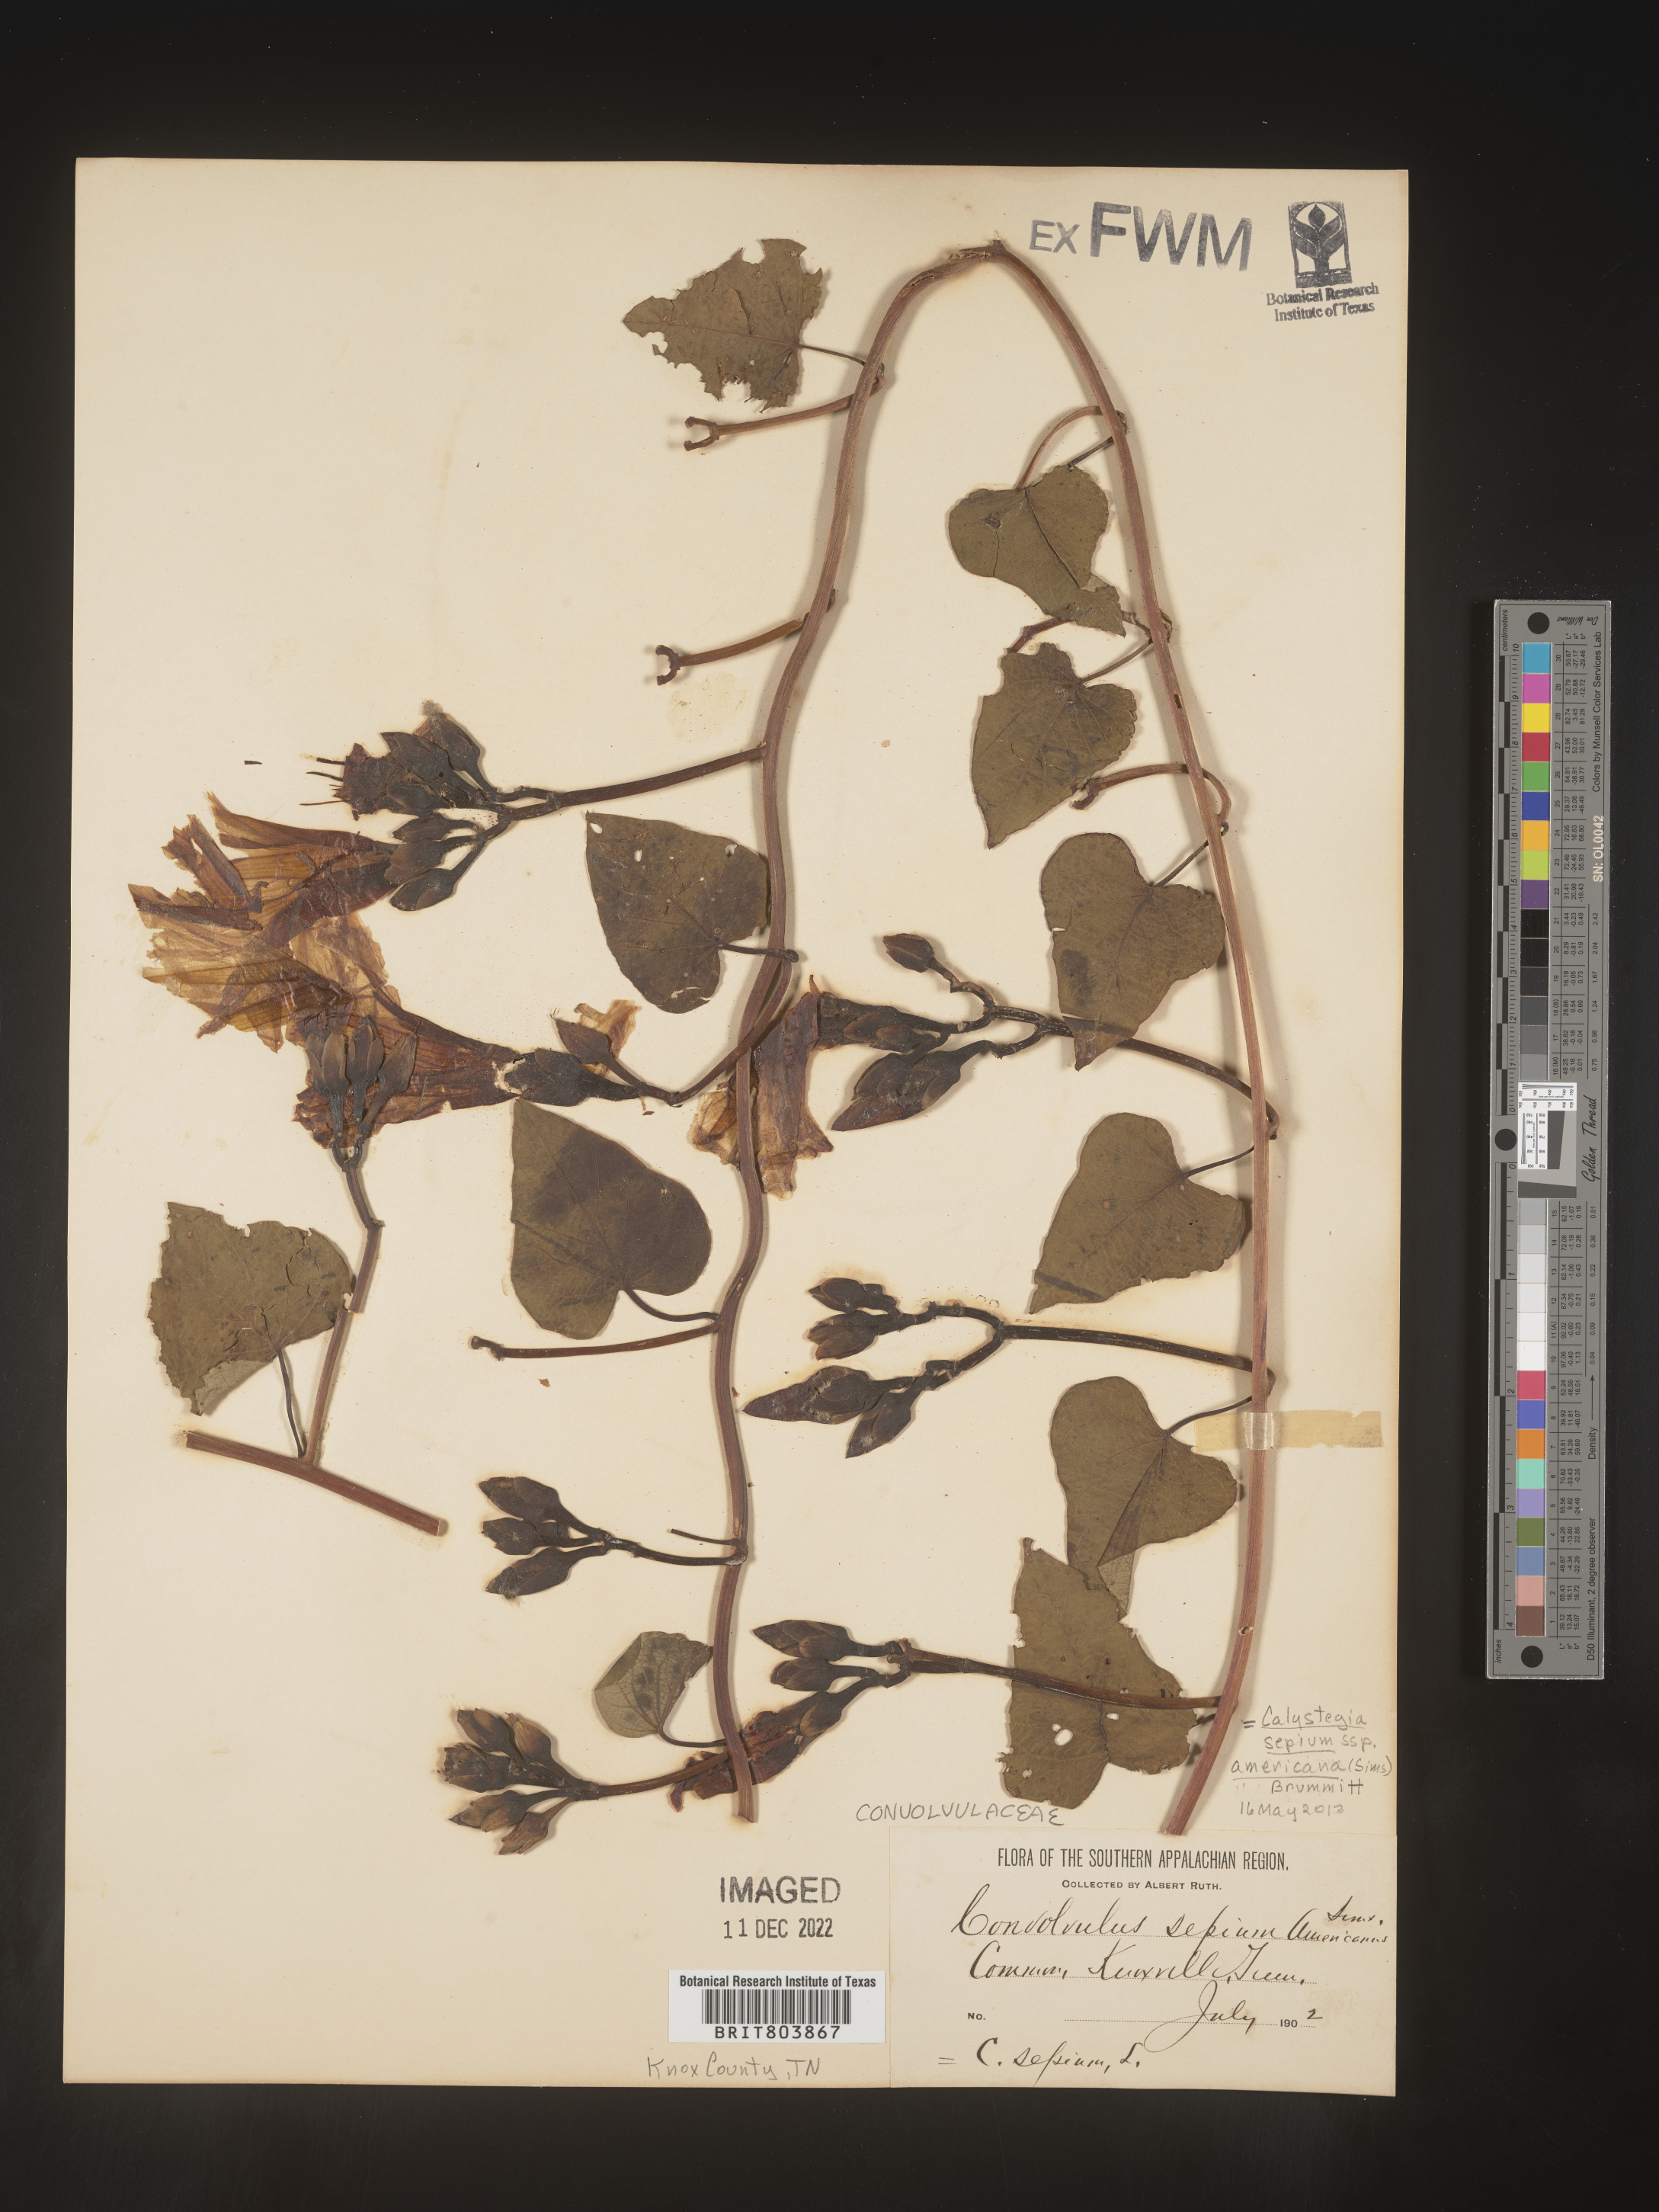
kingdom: Plantae
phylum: Tracheophyta
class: Magnoliopsida
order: Solanales
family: Convolvulaceae
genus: Calystegia
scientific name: Calystegia sepium
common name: Hedge bindweed
